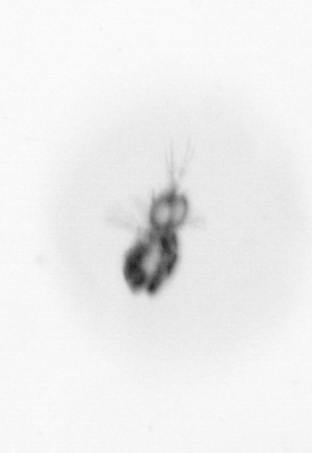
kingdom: Animalia
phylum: Arthropoda
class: Copepoda
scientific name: Copepoda
